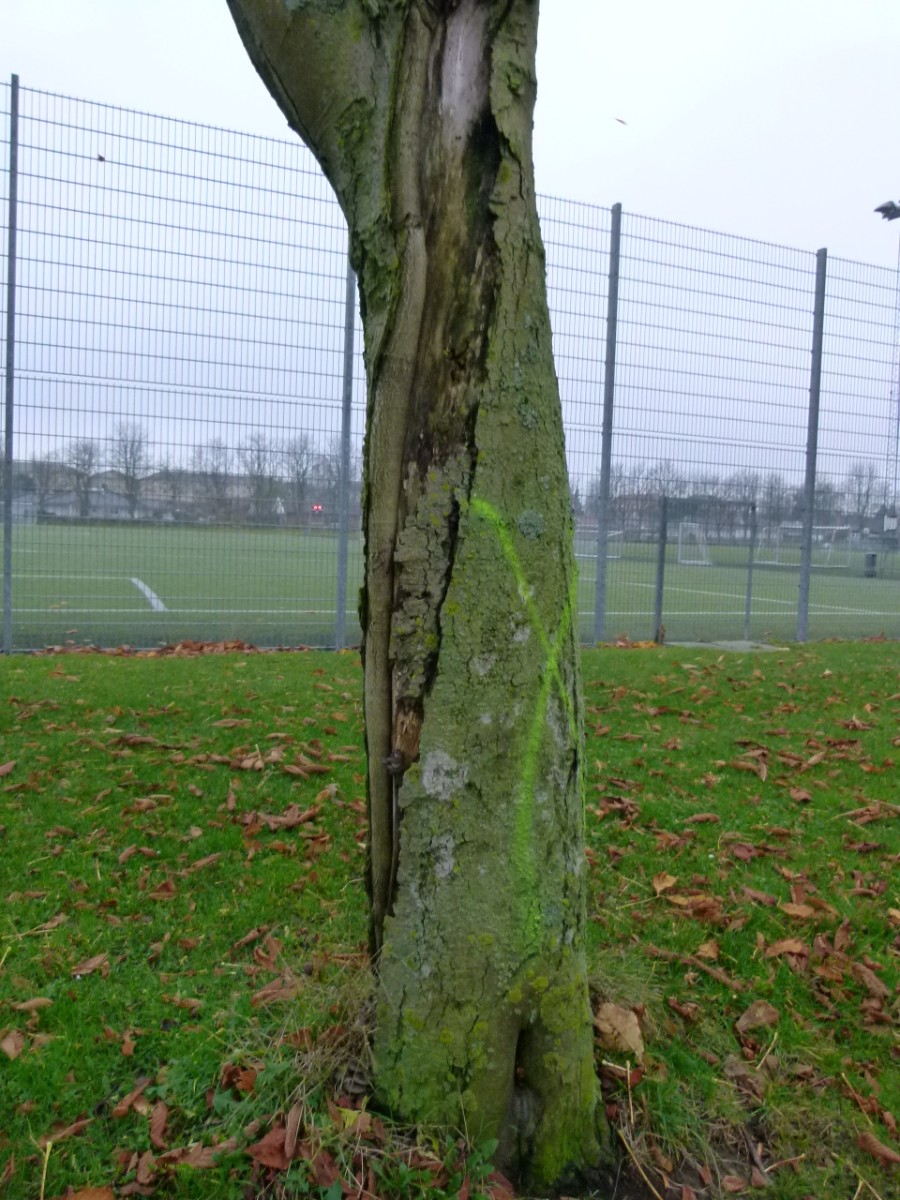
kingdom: Fungi
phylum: Basidiomycota
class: Agaricomycetes
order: Agaricales
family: Pleurotaceae
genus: Pleurotus
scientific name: Pleurotus ostreatus
